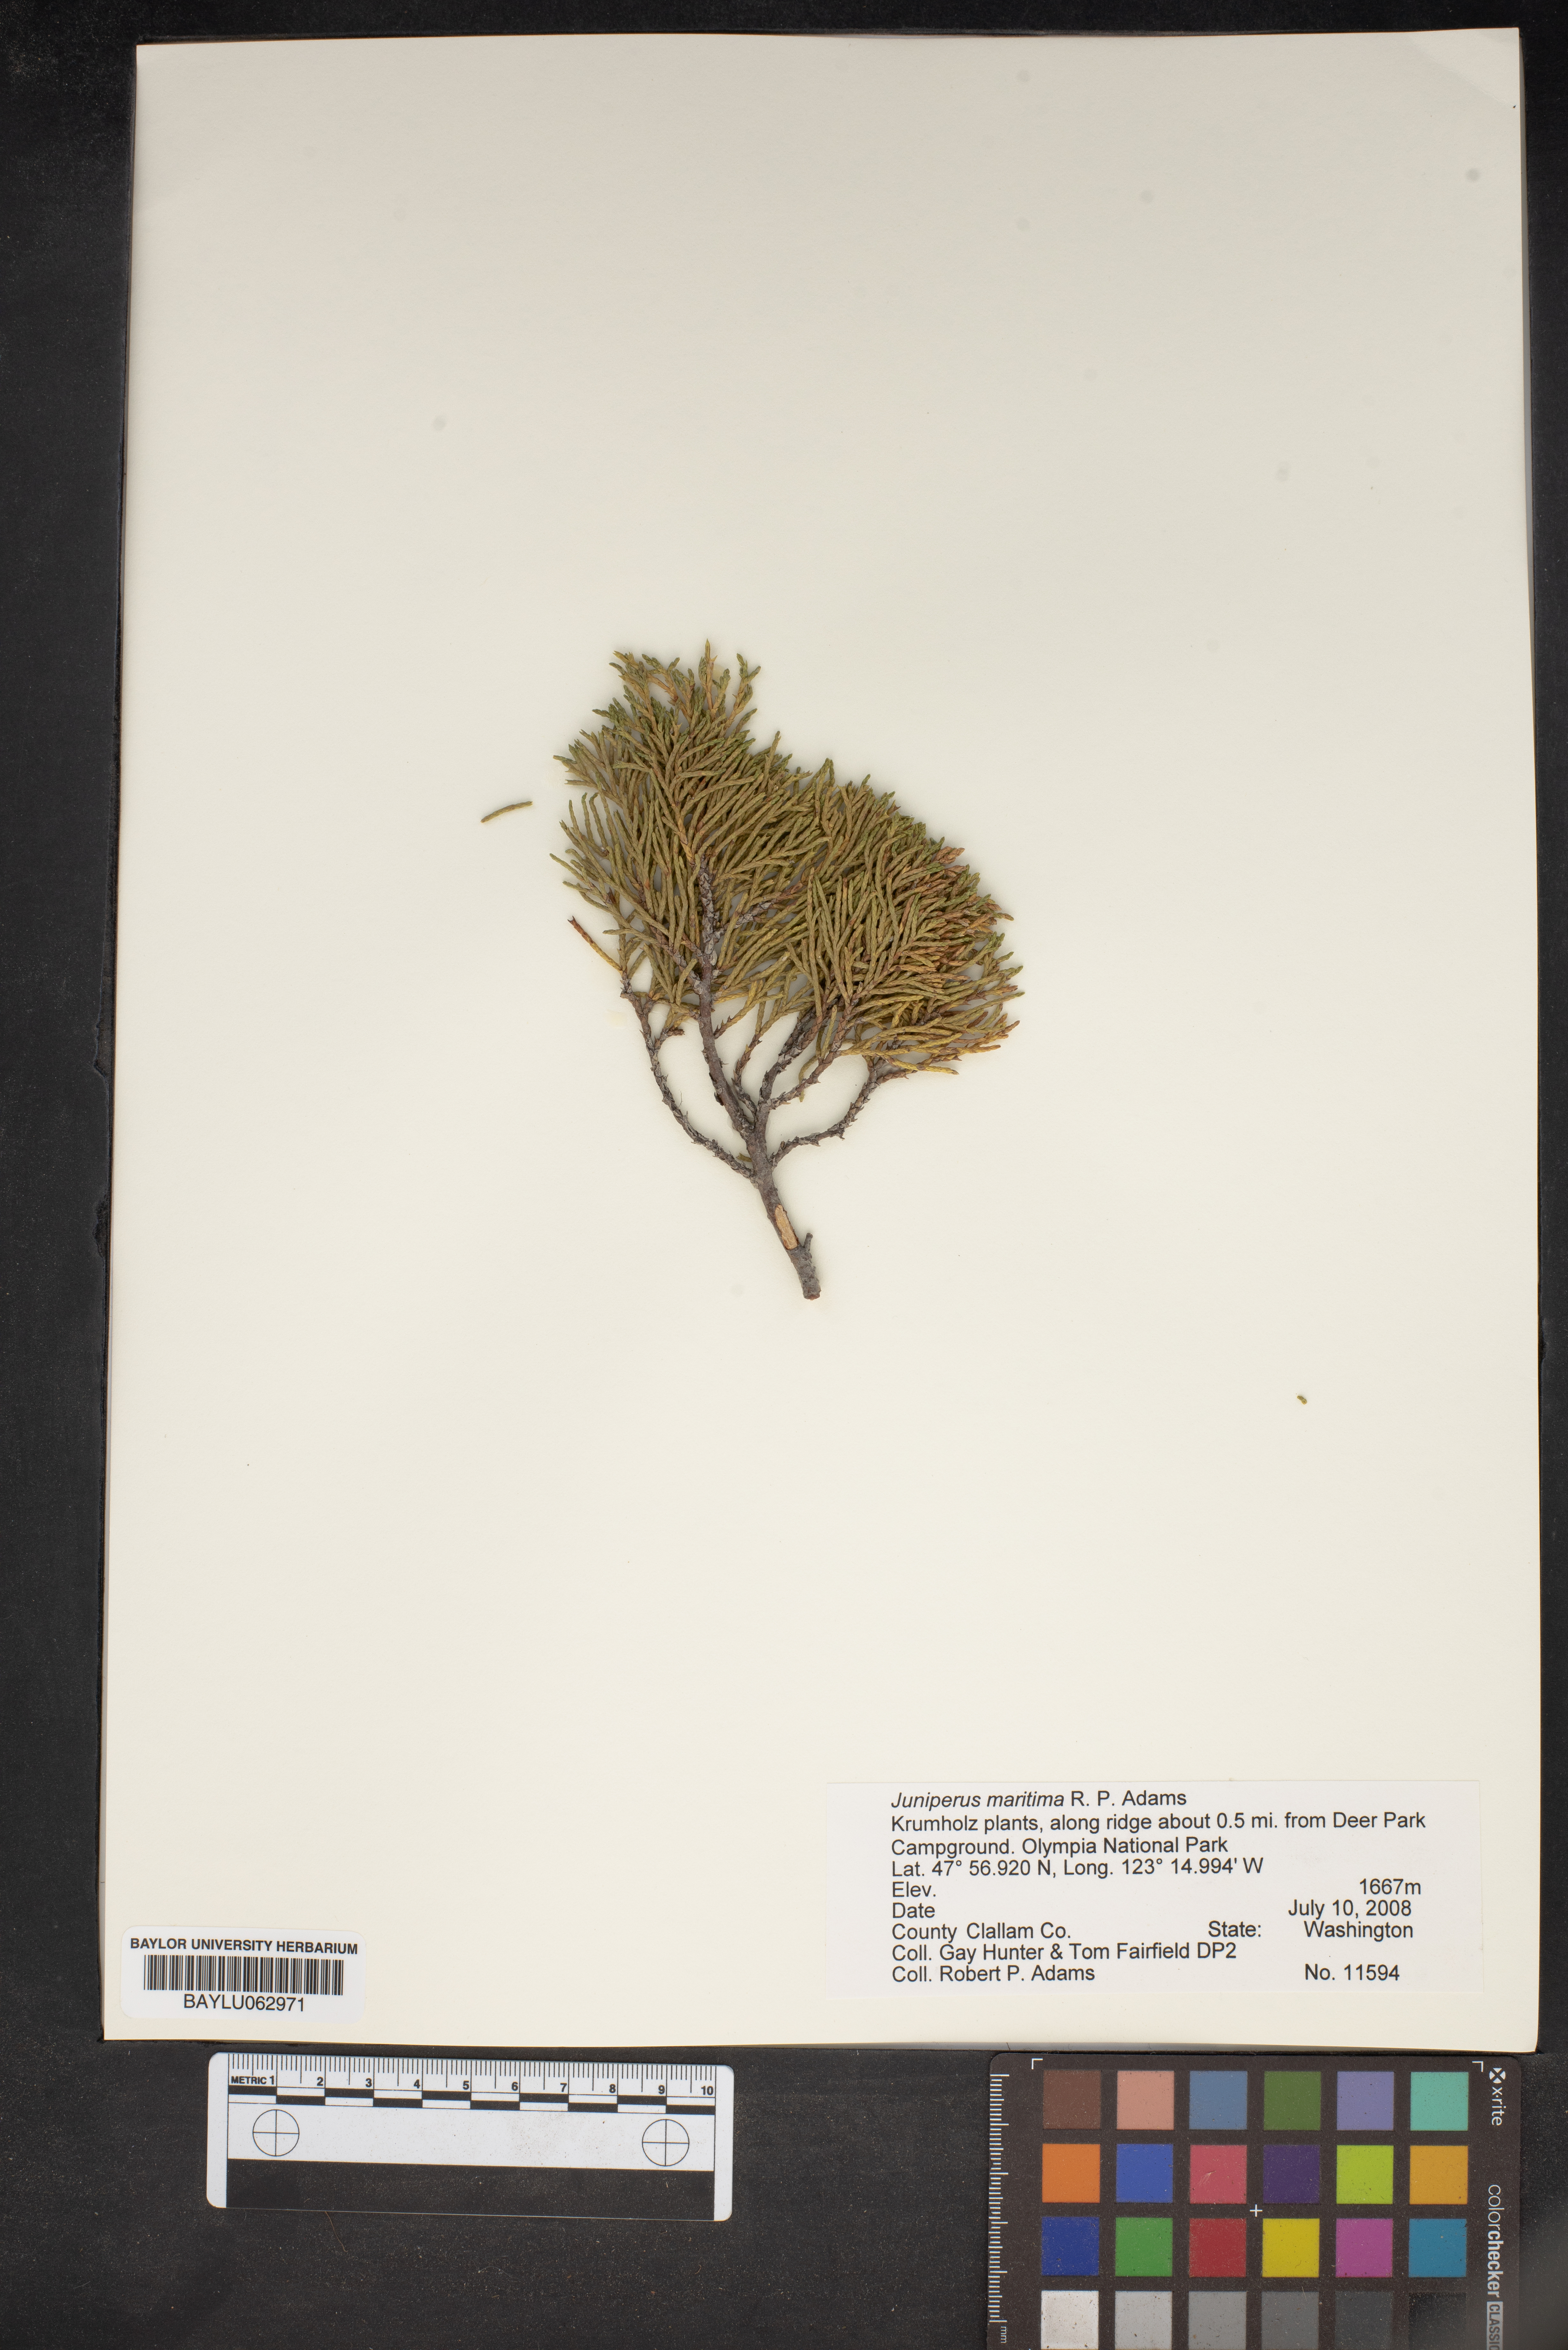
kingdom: Plantae
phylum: Tracheophyta
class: Pinopsida
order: Pinales
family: Cupressaceae
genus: Juniperus
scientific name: Juniperus scopulorum
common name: Rocky mountain juniper
